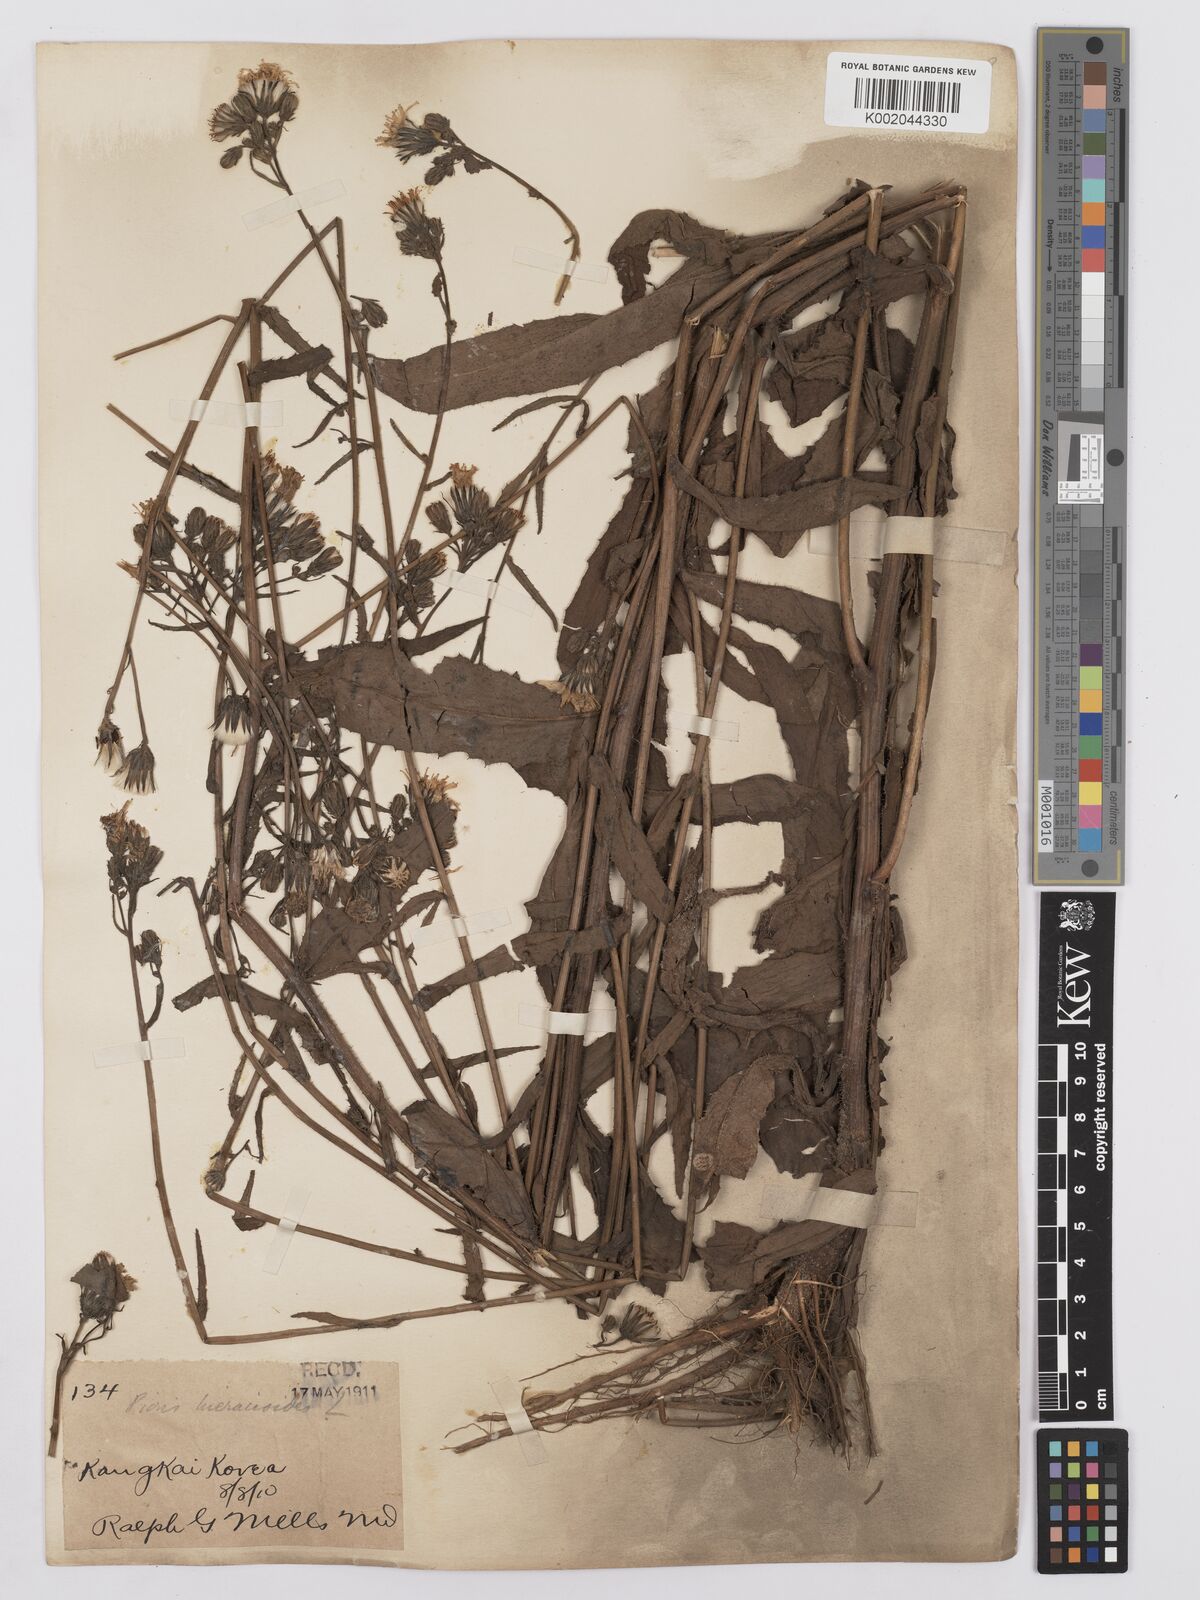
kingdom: Plantae
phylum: Tracheophyta
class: Magnoliopsida
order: Asterales
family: Asteraceae
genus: Picris
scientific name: Picris hieracioides
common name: Hawkweed oxtongue
